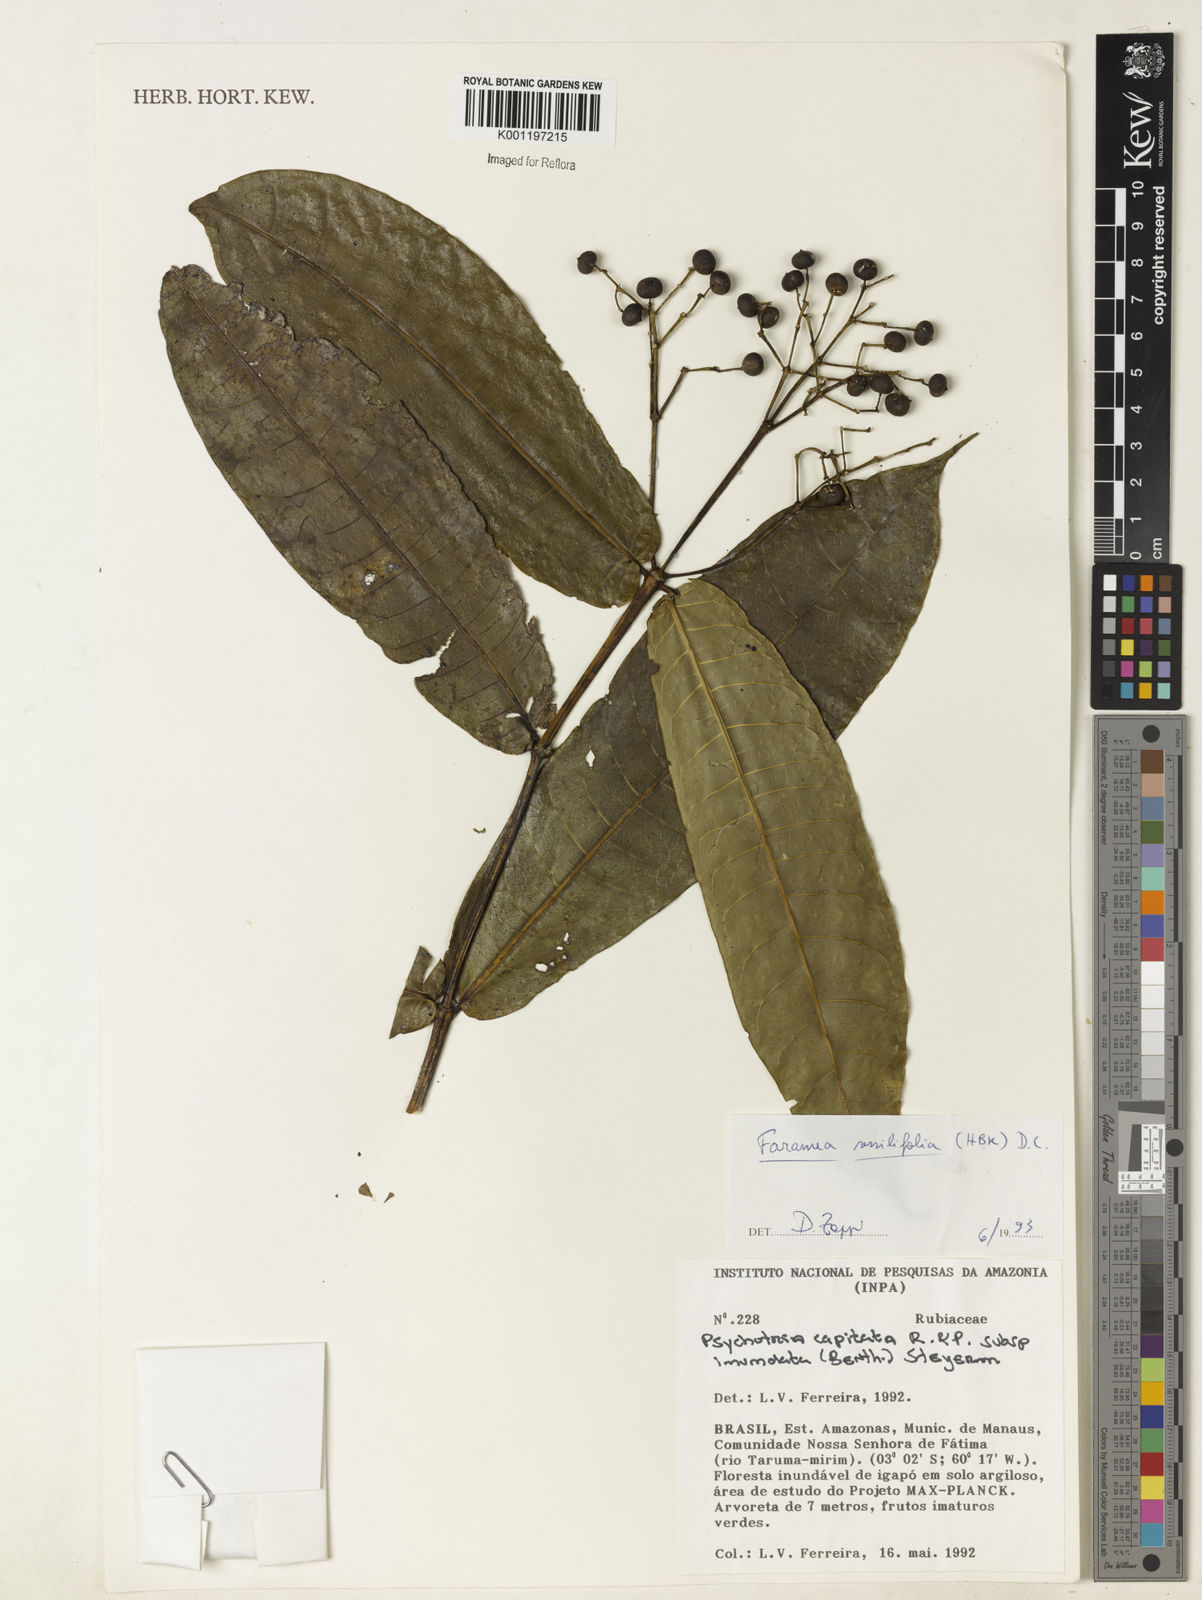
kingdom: Plantae
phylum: Tracheophyta
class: Magnoliopsida
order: Gentianales
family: Rubiaceae
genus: Faramea
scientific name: Faramea sessilifolia
